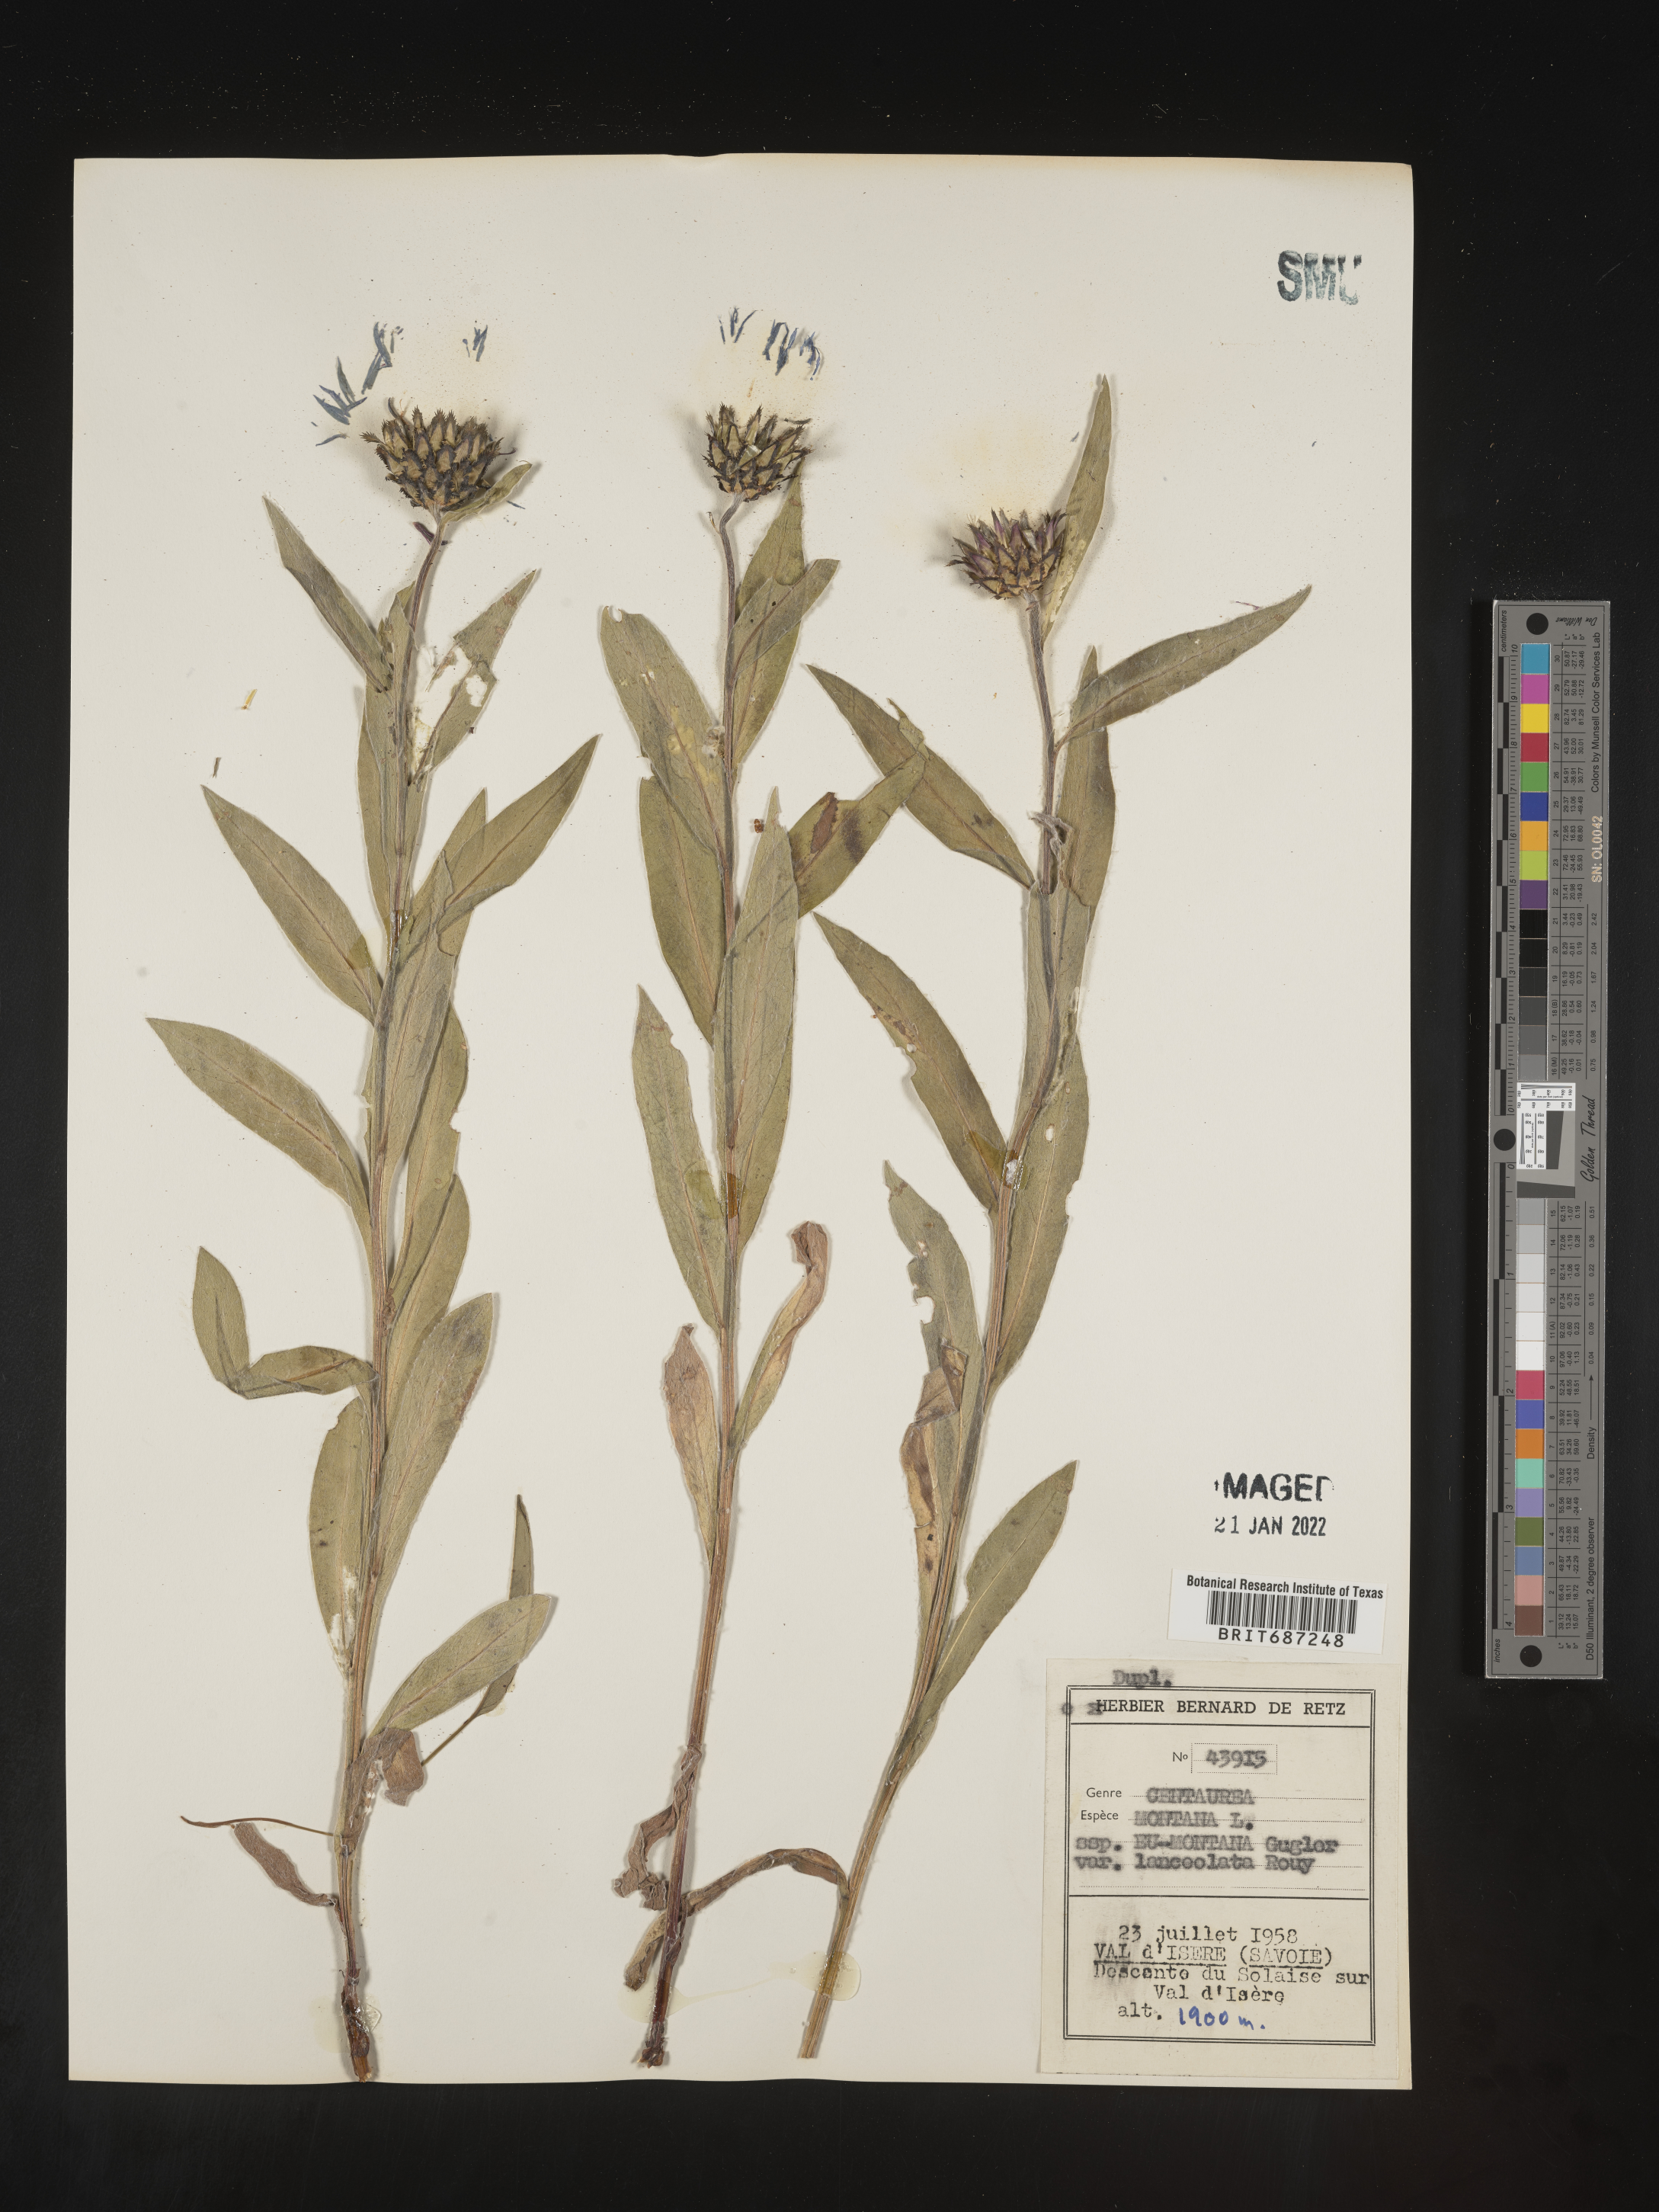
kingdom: Plantae
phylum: Tracheophyta
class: Magnoliopsida
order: Asterales
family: Asteraceae
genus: Centaurea
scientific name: Centaurea
